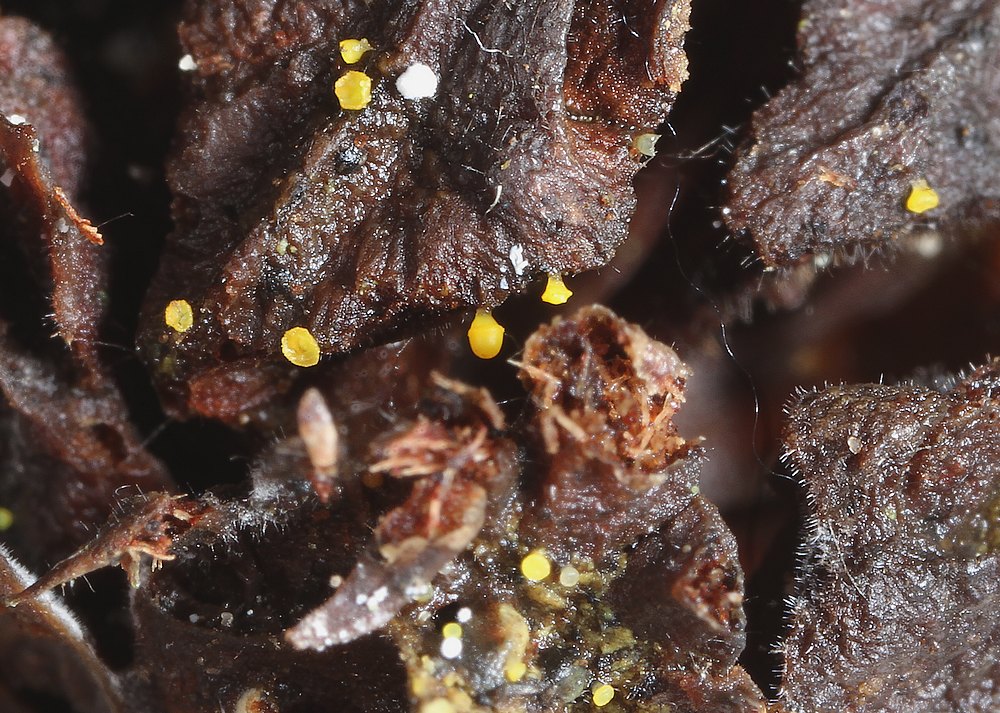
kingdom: Fungi
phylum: Ascomycota
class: Leotiomycetes
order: Helotiales
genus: Lemalis
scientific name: Lemalis aurea
